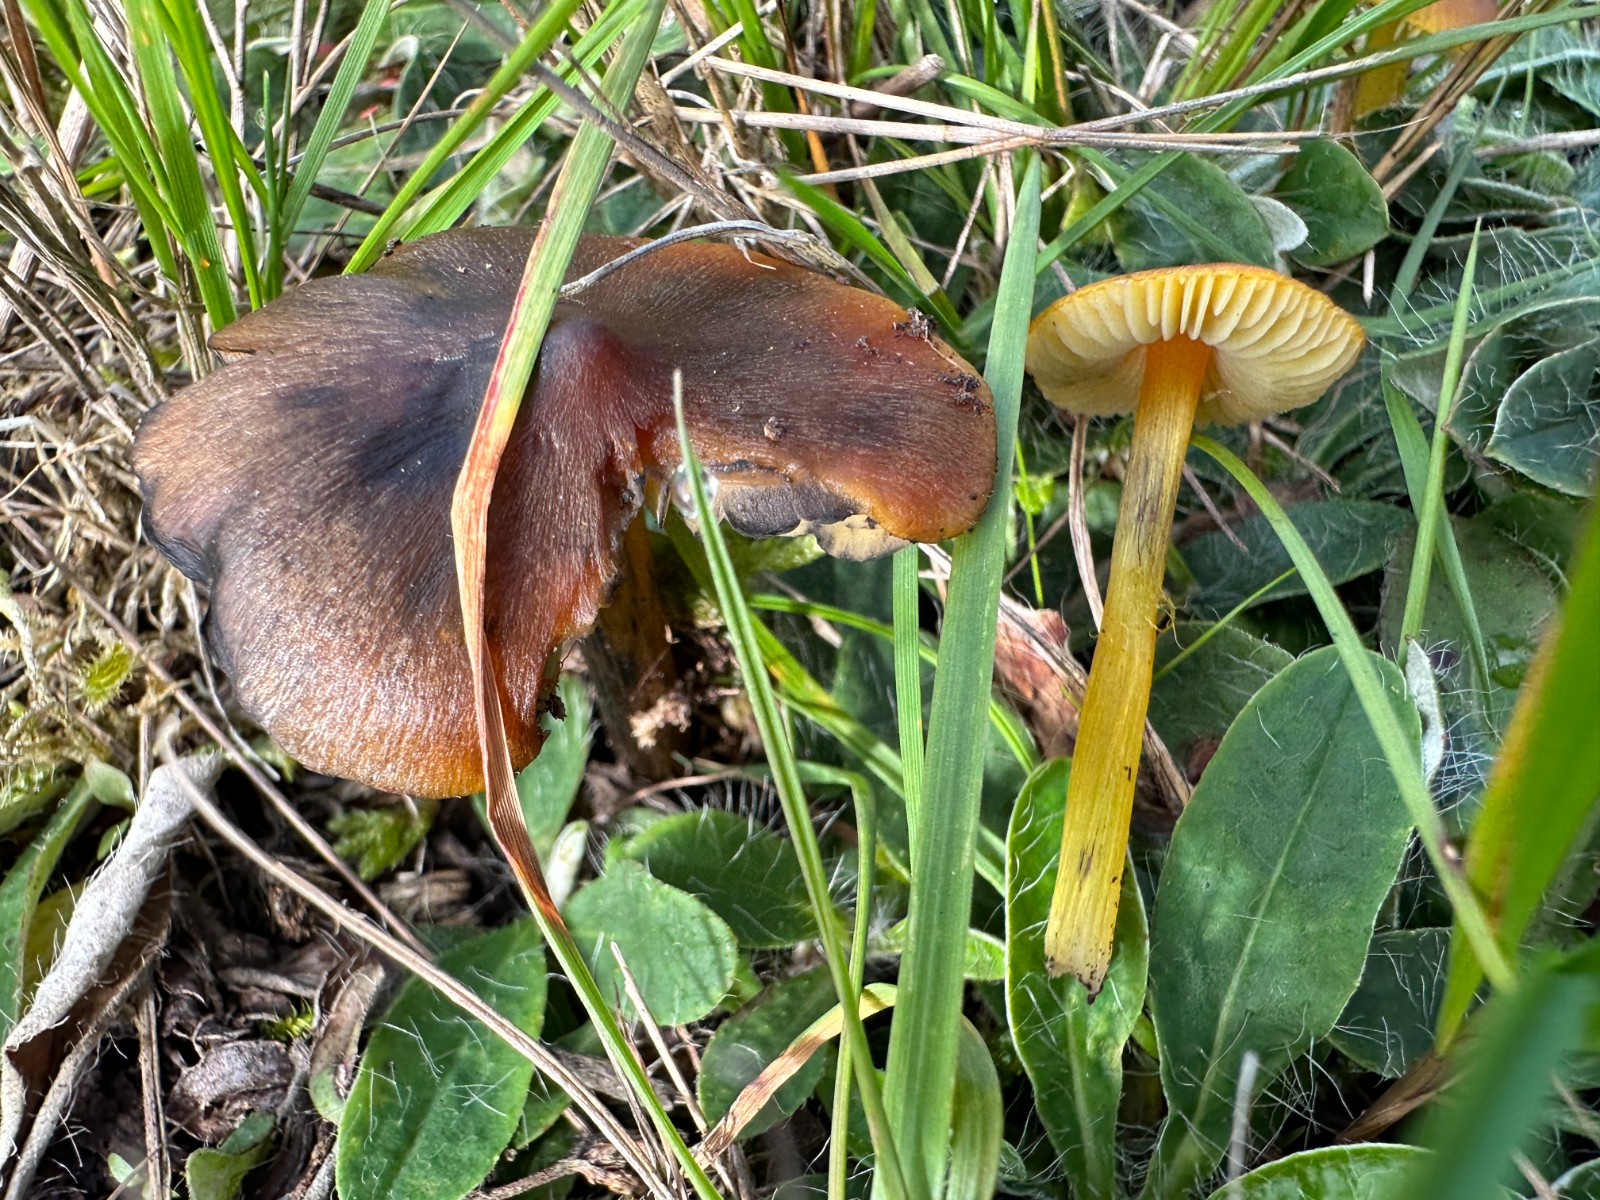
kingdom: Fungi
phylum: Basidiomycota
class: Agaricomycetes
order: Agaricales
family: Hygrophoraceae
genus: Hygrocybe
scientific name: Hygrocybe conica
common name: kegle-vokshat
